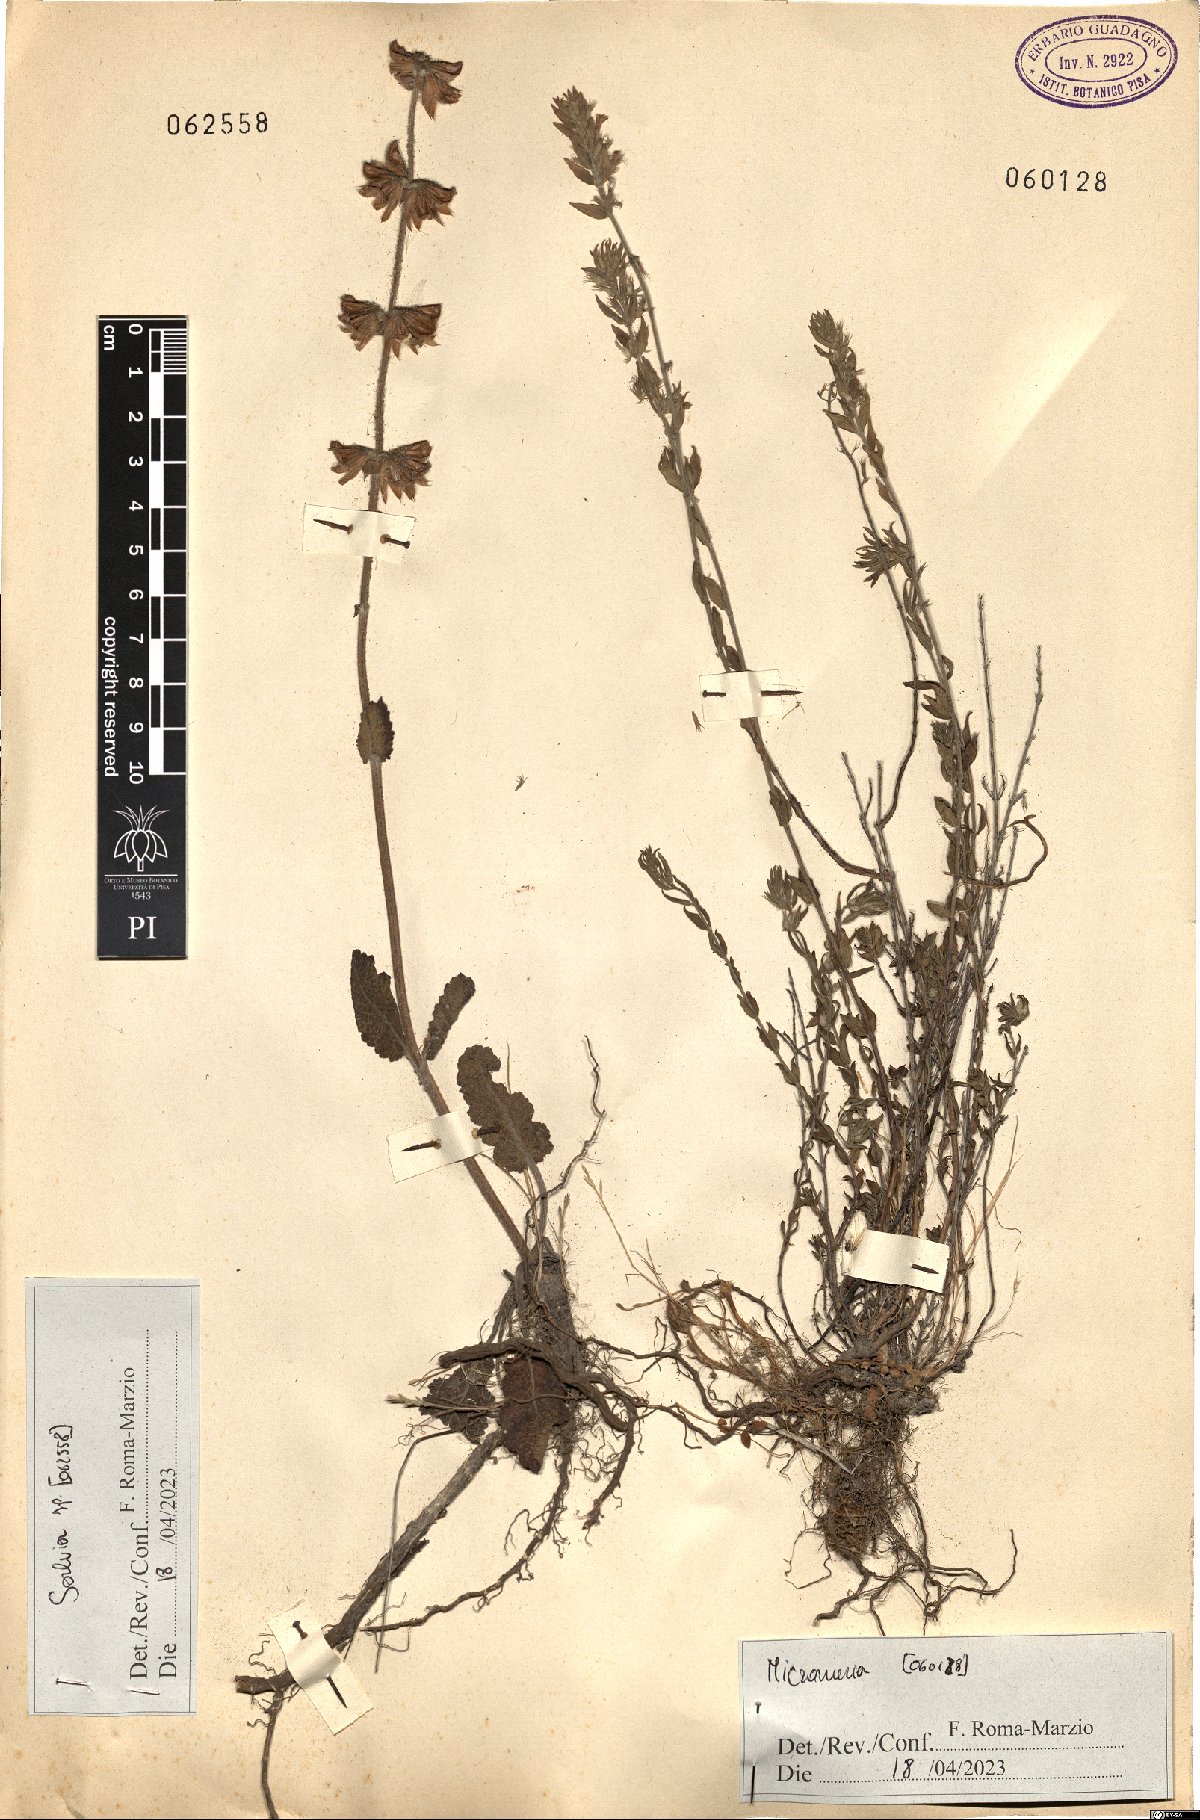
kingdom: Plantae
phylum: Tracheophyta
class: Magnoliopsida
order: Lamiales
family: Lamiaceae
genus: Salvia
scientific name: Salvia
